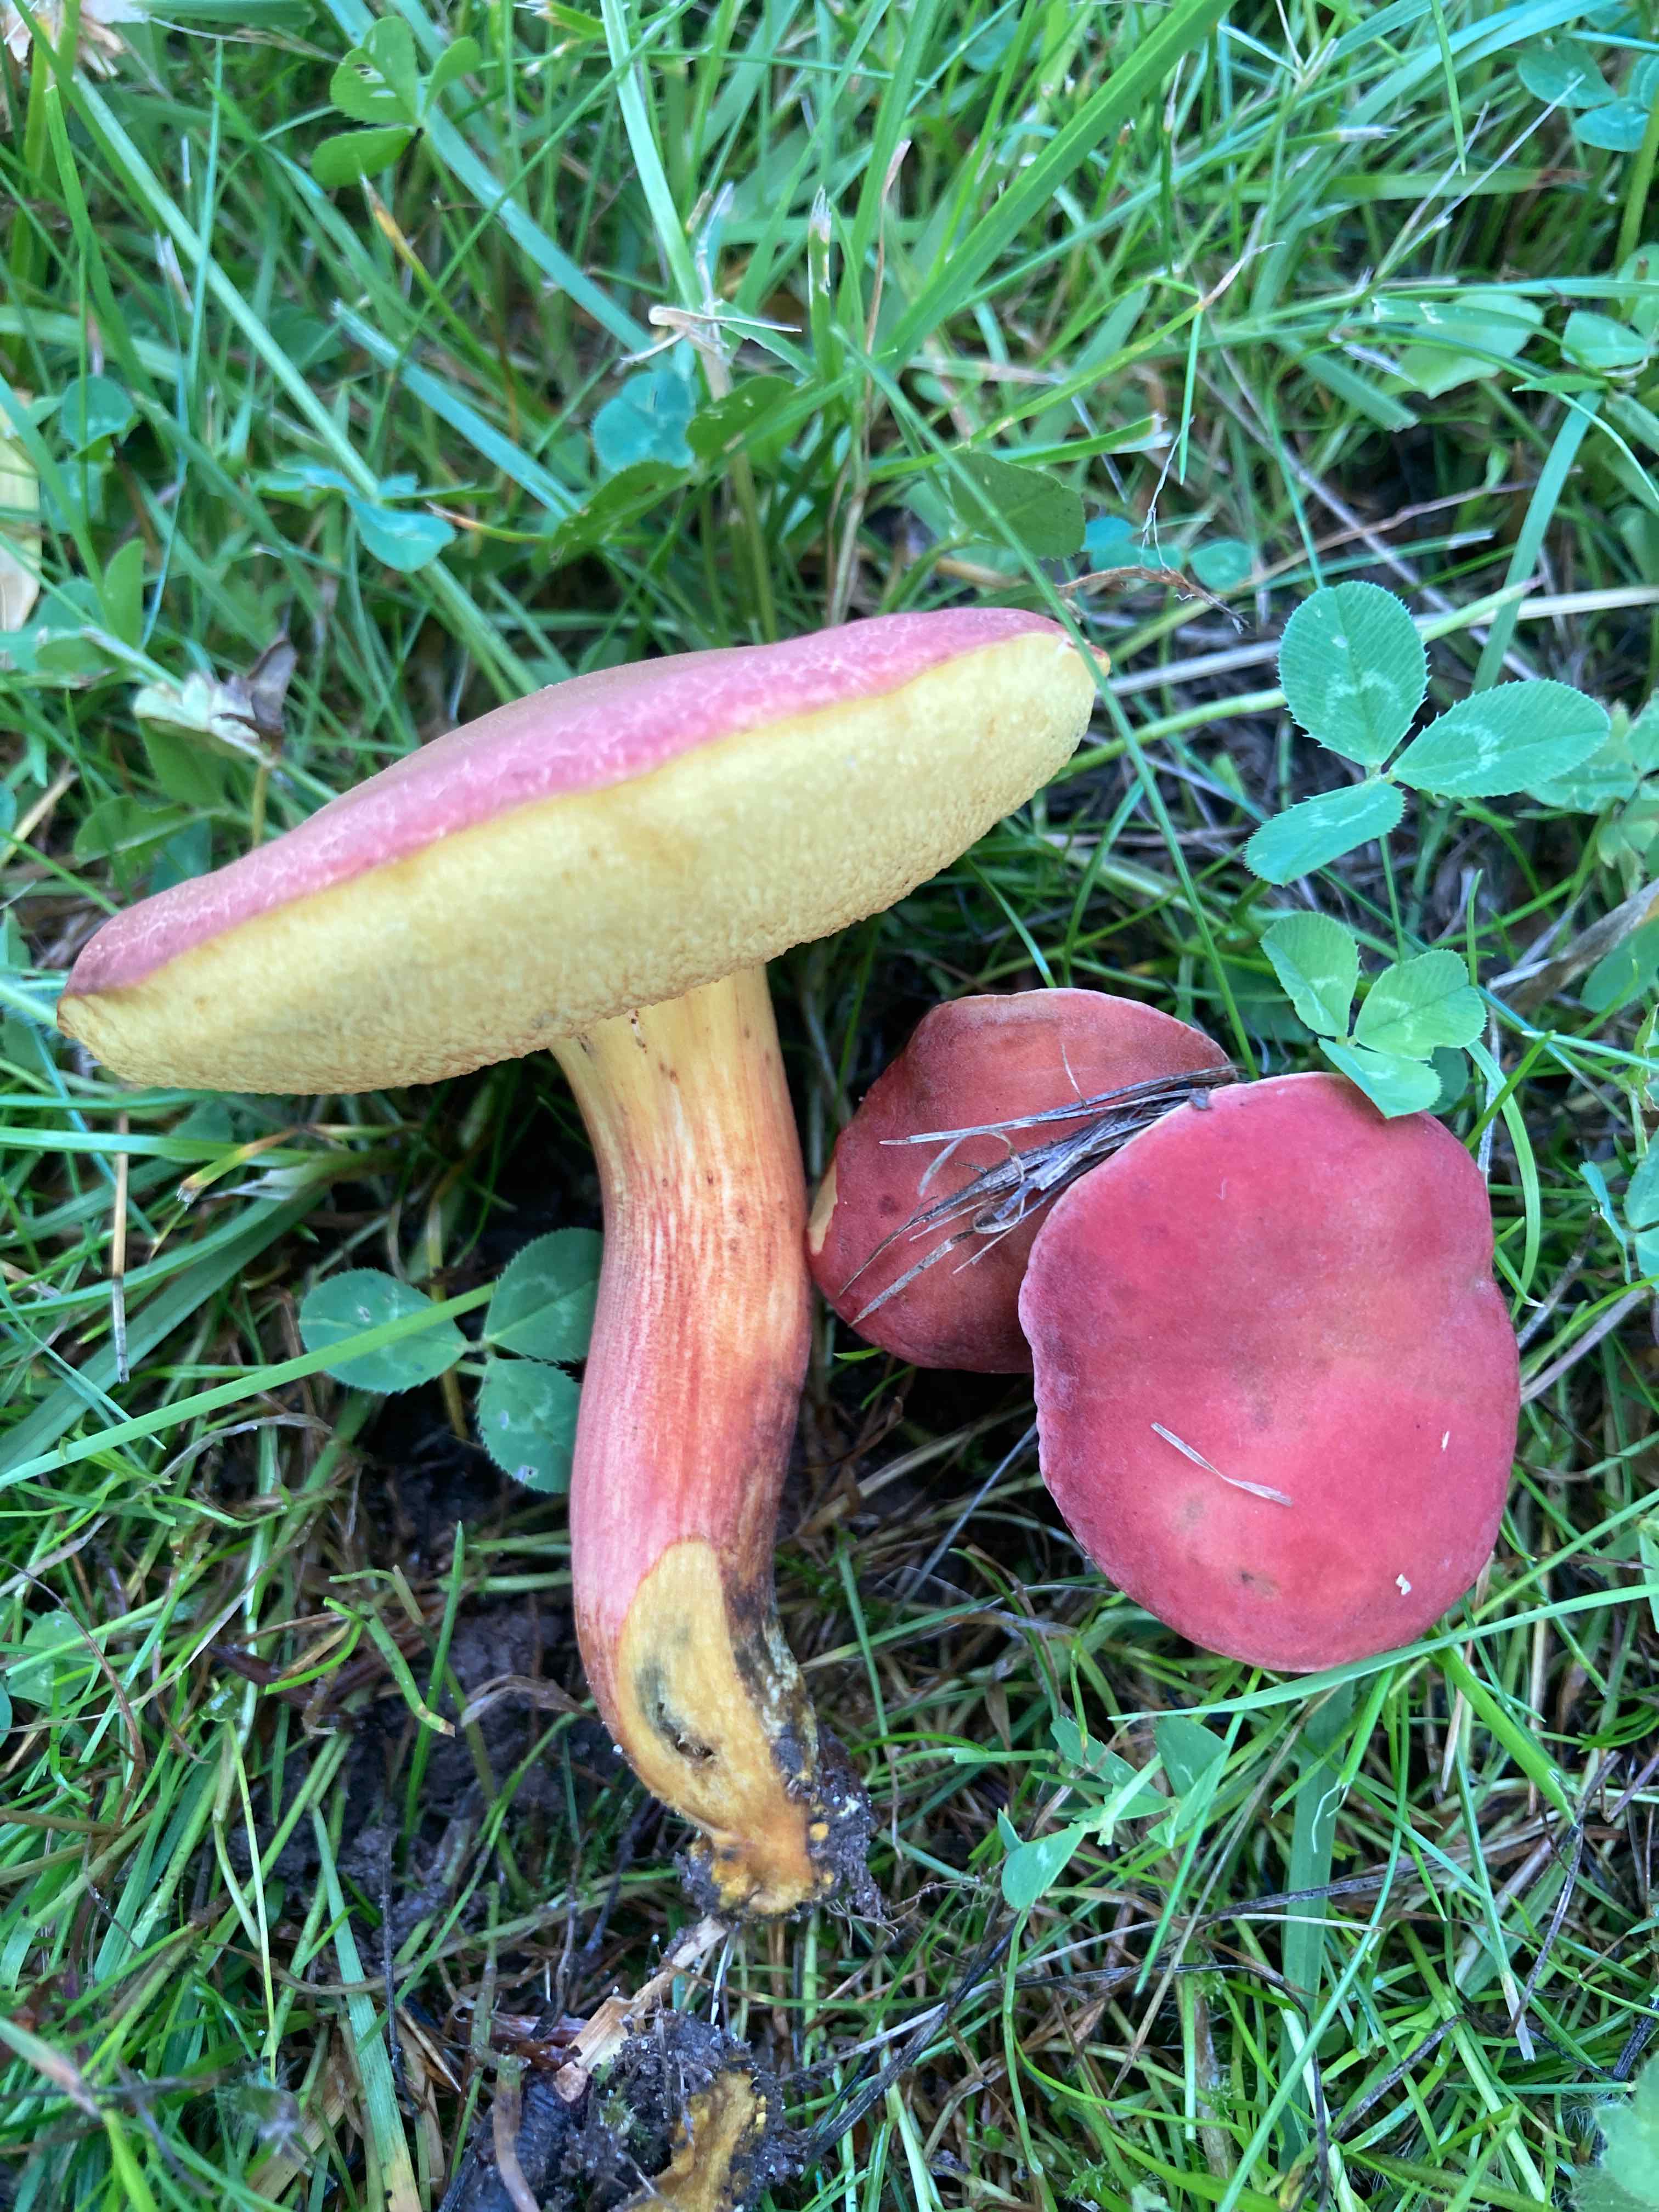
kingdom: Fungi
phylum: Basidiomycota
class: Agaricomycetes
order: Boletales
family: Boletaceae
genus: Hortiboletus
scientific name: Hortiboletus rubellus
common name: blodrød rørhat
